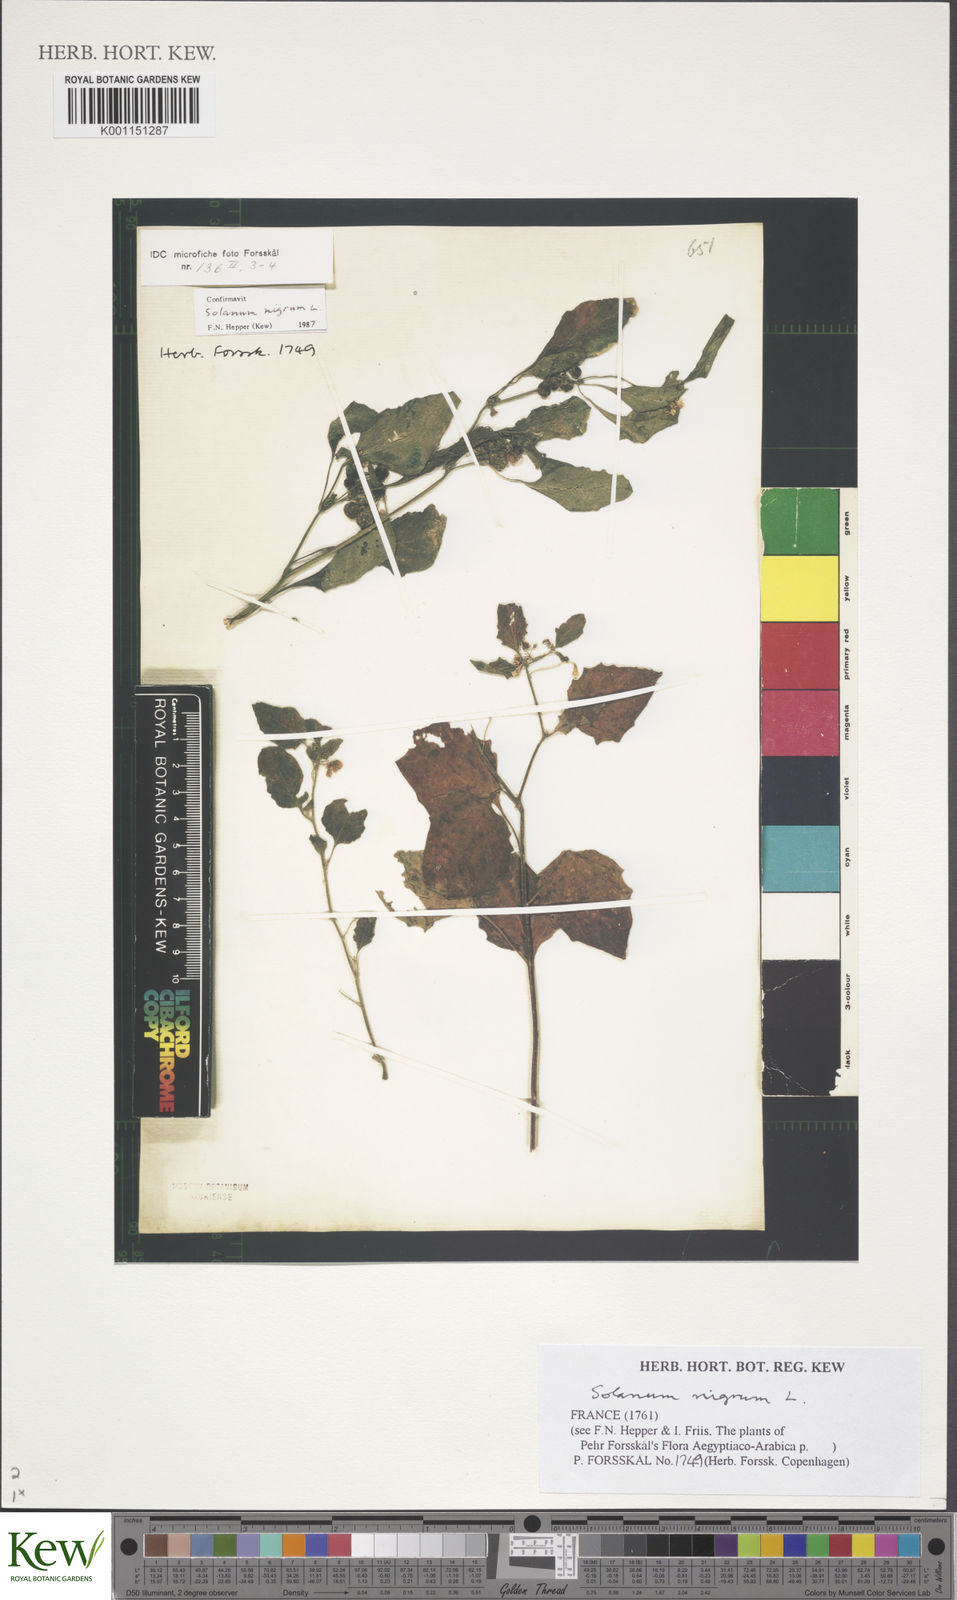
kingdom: Plantae
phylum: Tracheophyta
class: Magnoliopsida
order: Solanales
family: Solanaceae
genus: Solanum
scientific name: Solanum nigrum
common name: Black nightshade
